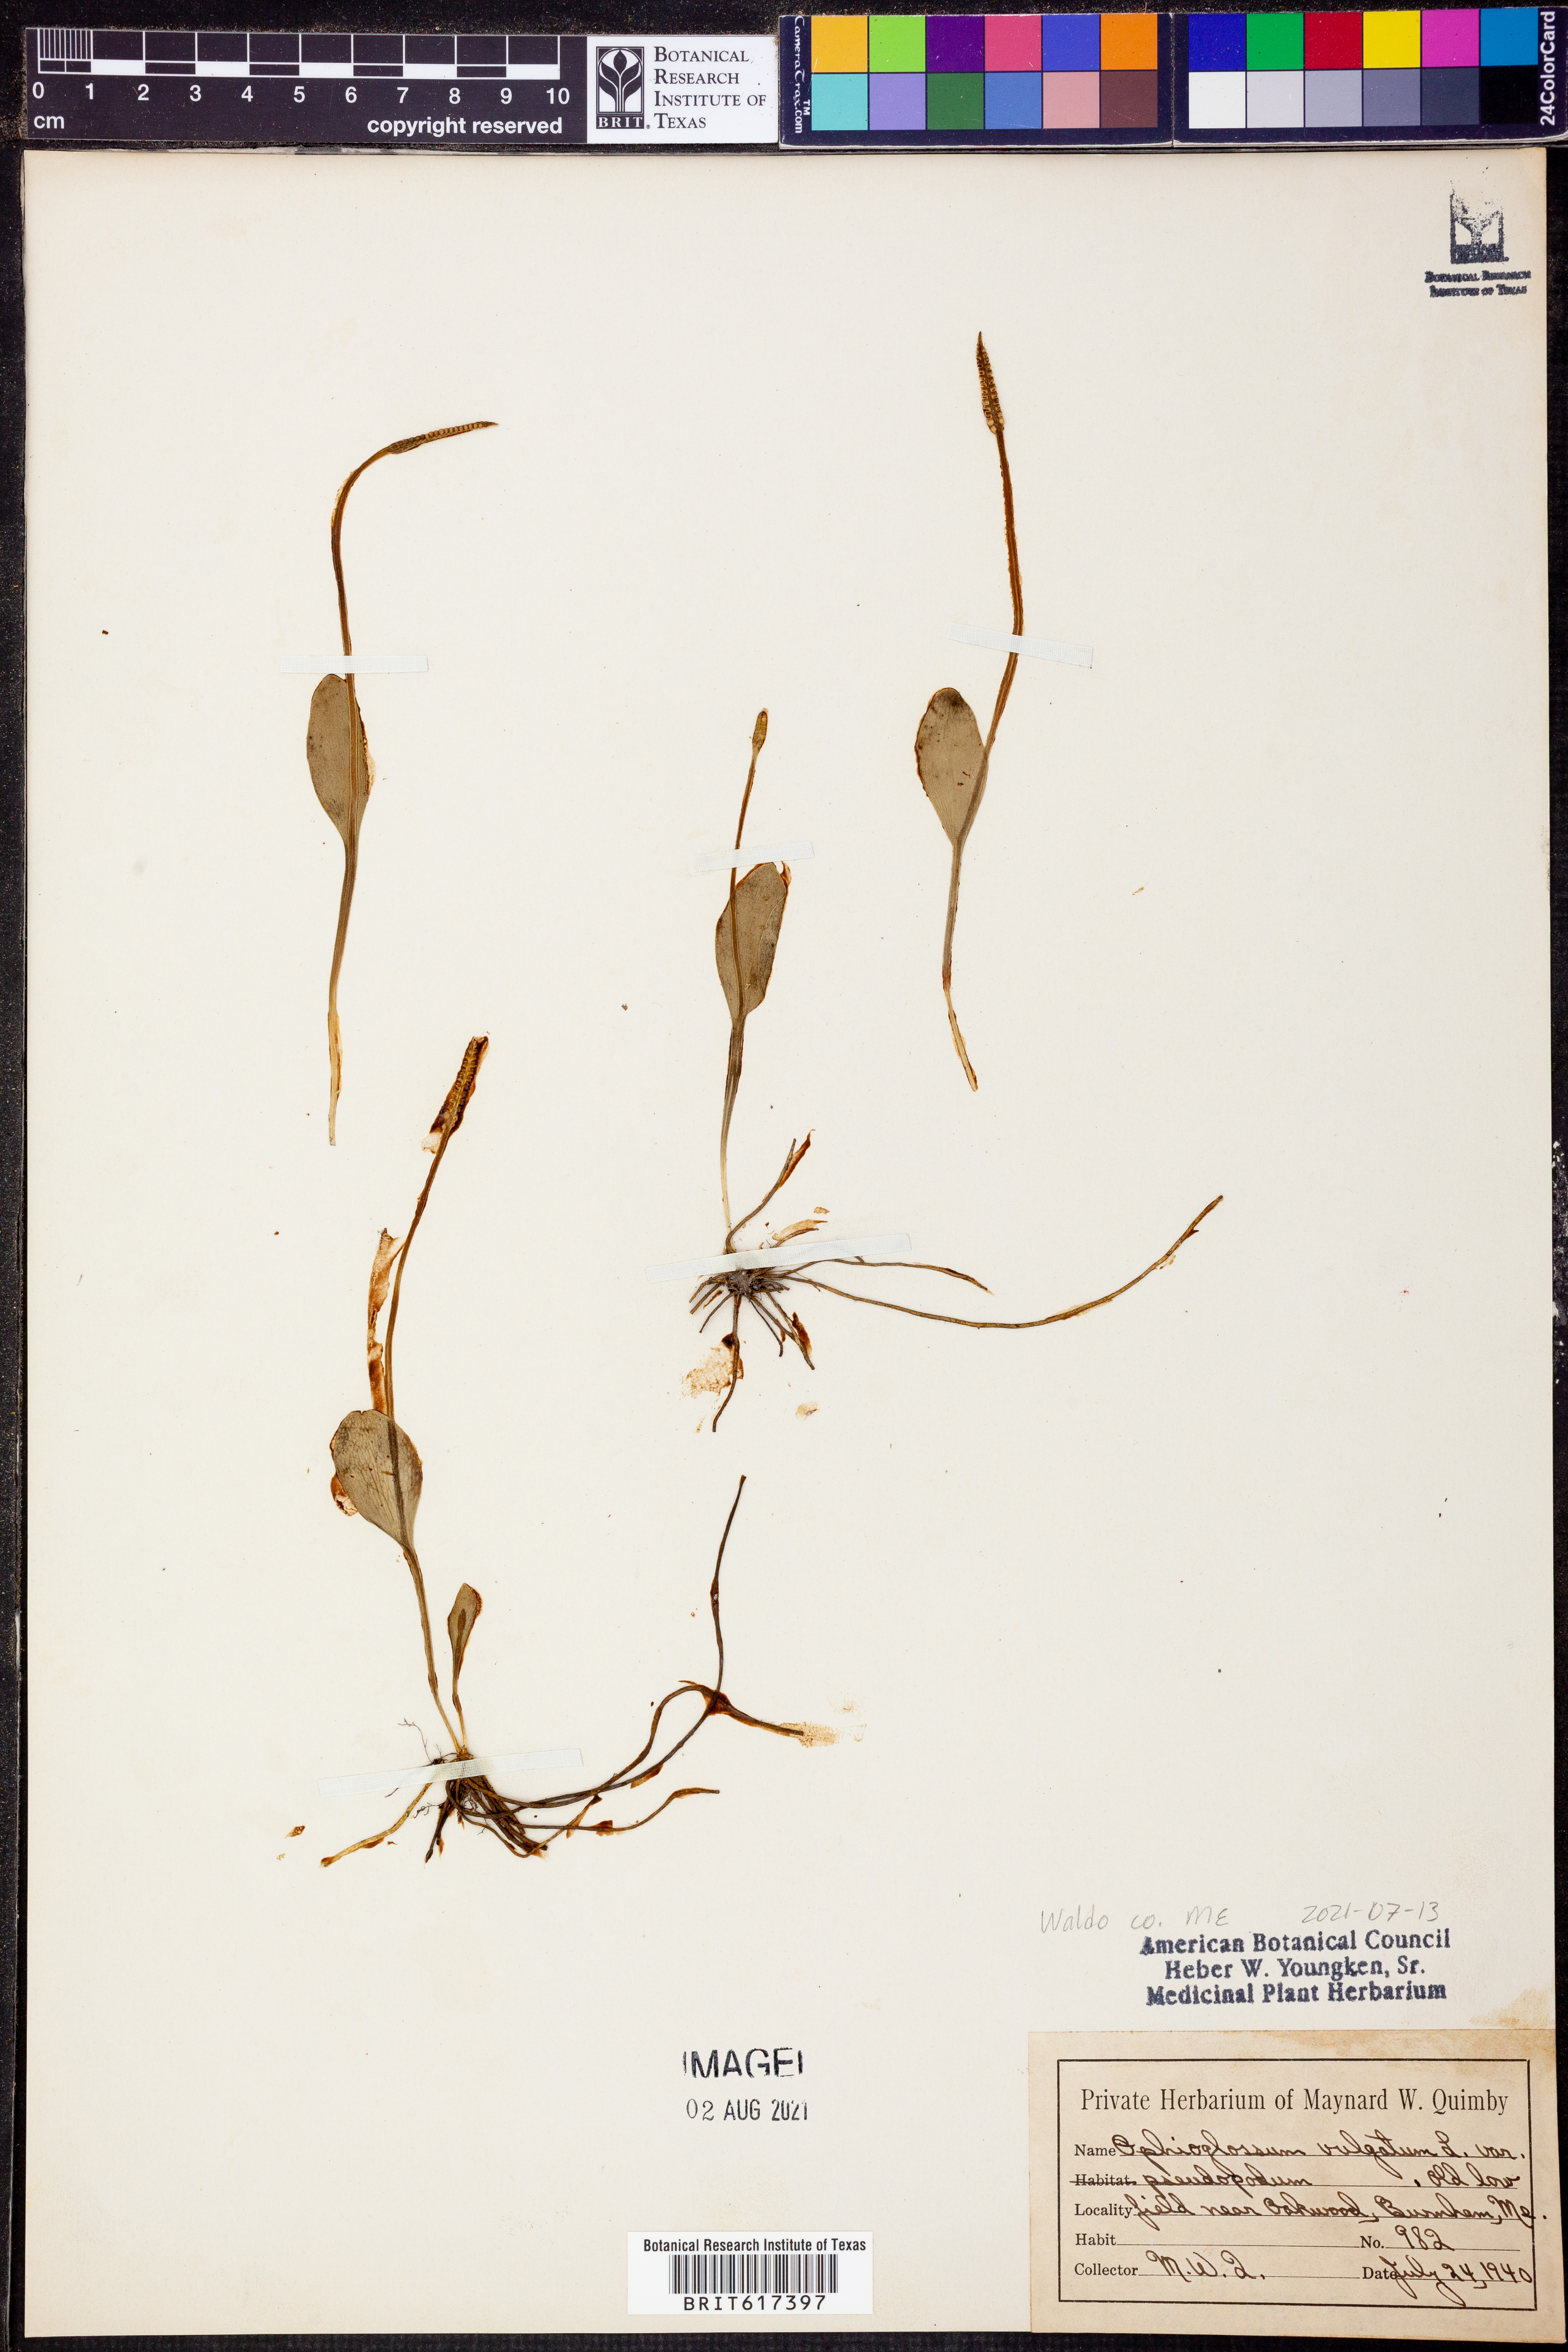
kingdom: Plantae
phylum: Tracheophyta
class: Polypodiopsida
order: Ophioglossales
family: Ophioglossaceae
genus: Ophioglossum
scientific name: Ophioglossum vulgatum
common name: Adder's-tongue
